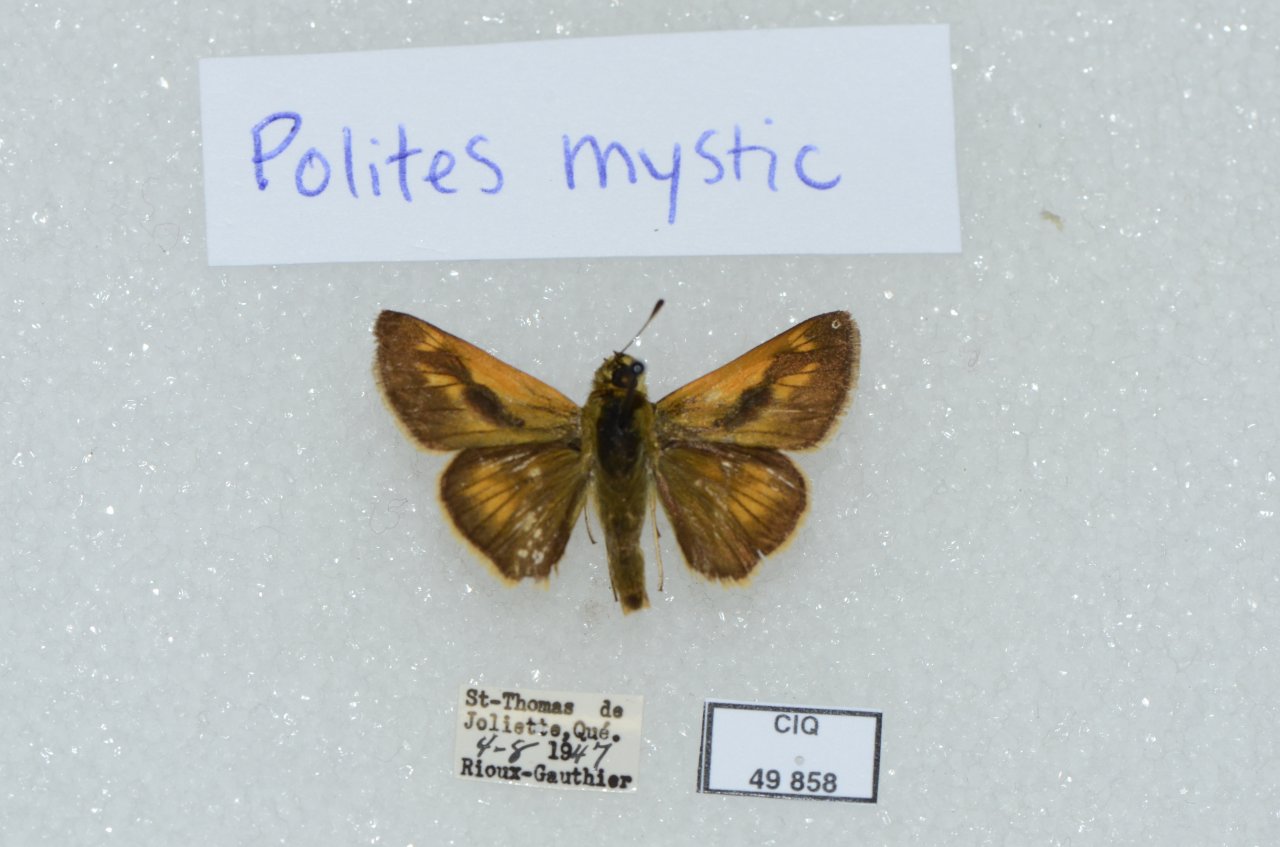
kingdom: Animalia
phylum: Arthropoda
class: Insecta
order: Lepidoptera
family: Hesperiidae
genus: Polites
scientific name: Polites
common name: Long Dash Skipper
